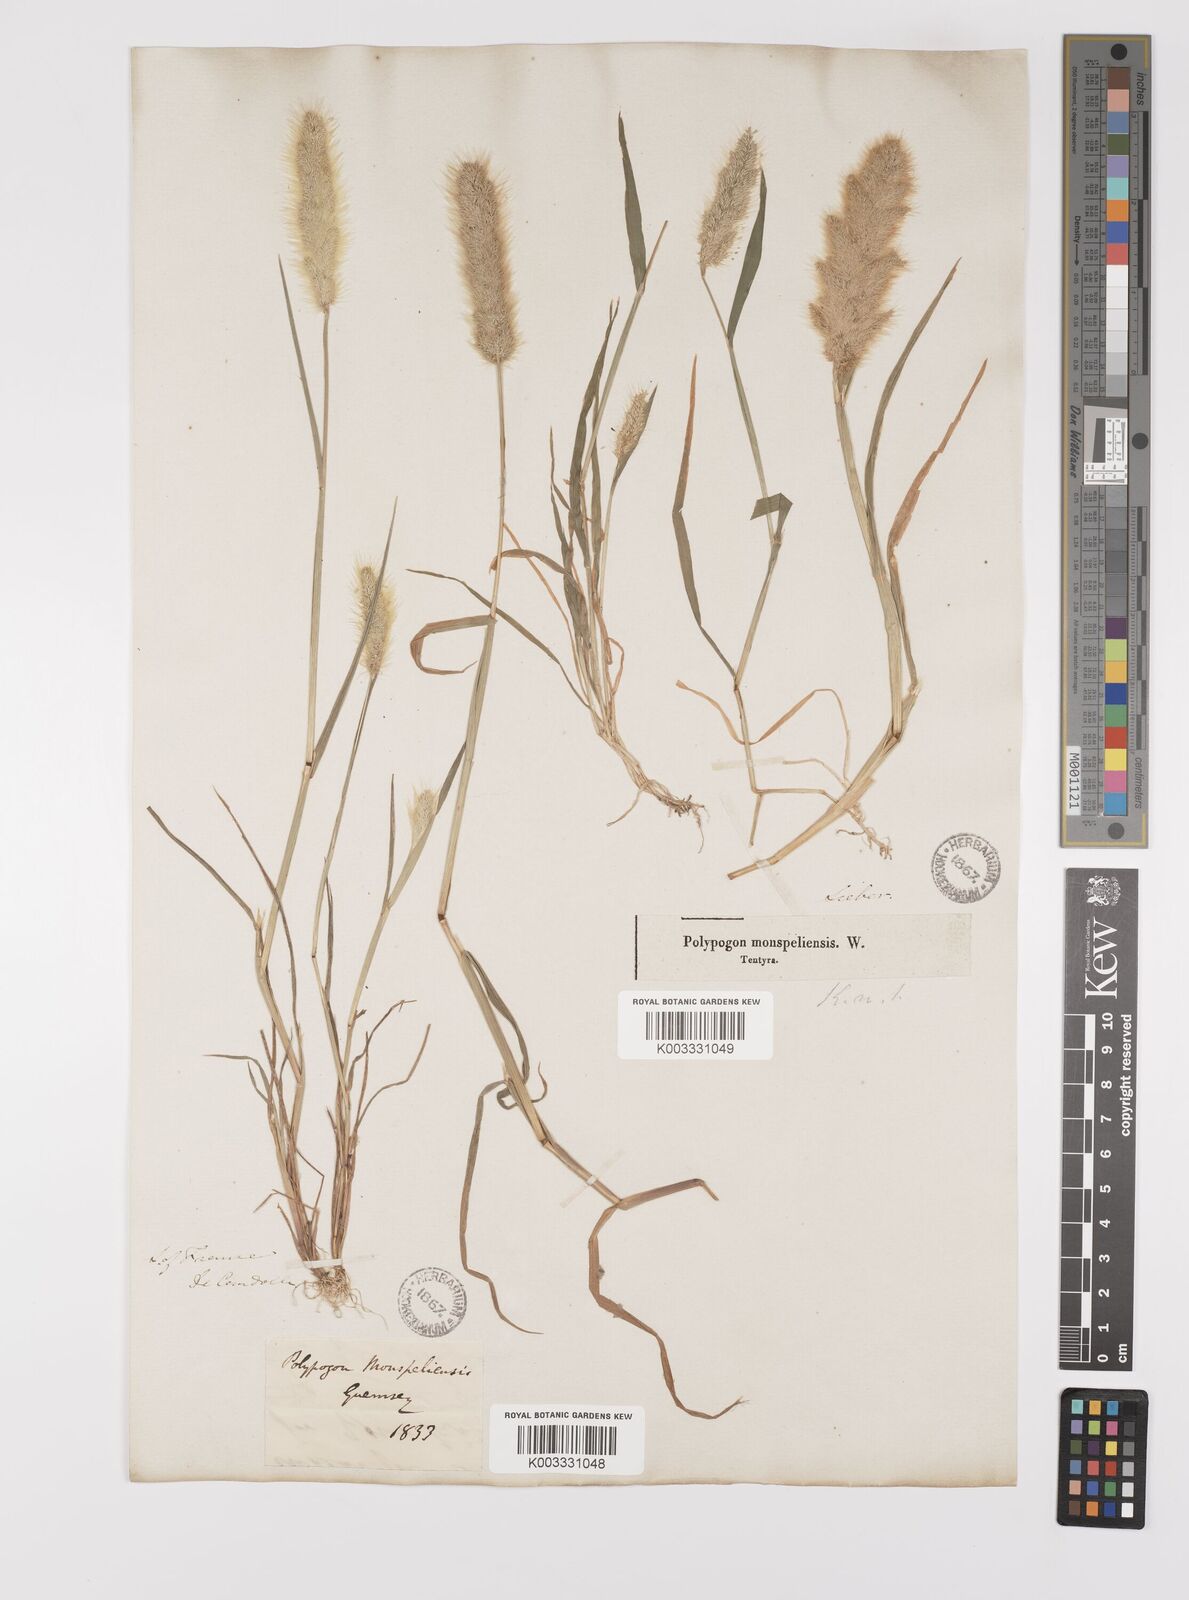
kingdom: Plantae
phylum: Tracheophyta
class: Liliopsida
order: Poales
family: Poaceae
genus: Polypogon
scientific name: Polypogon monspeliensis
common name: Annual rabbitsfoot grass
